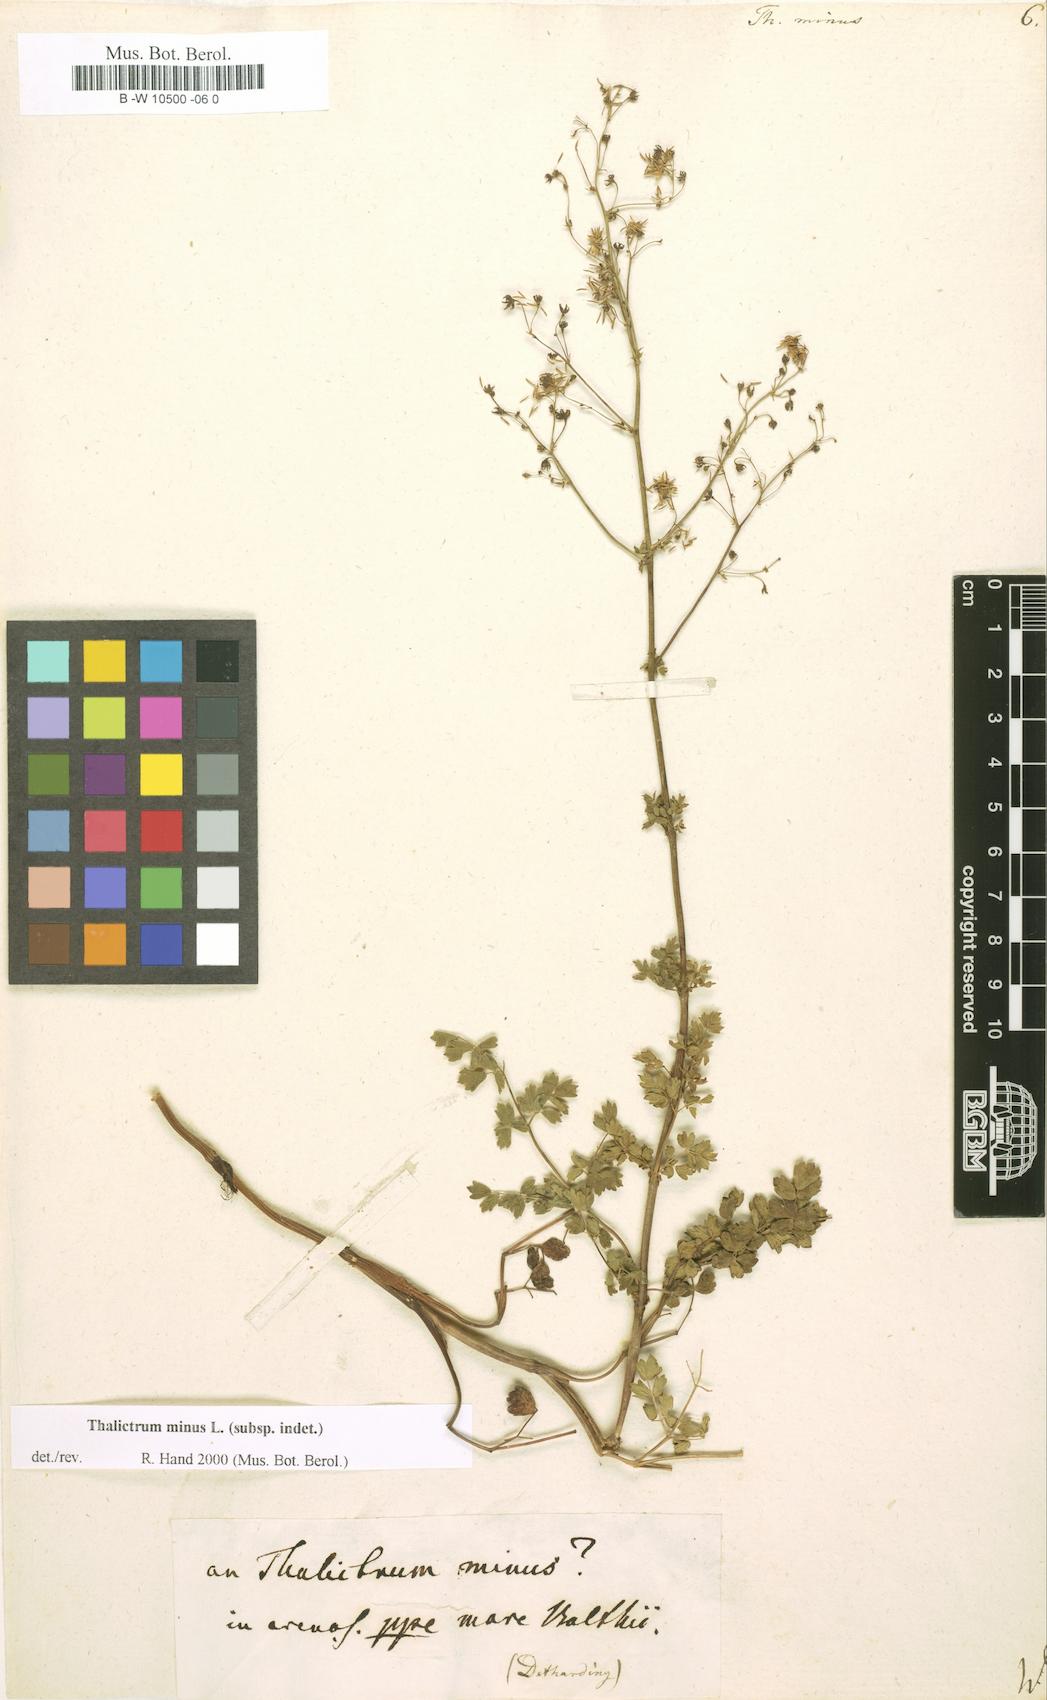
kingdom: Plantae
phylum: Tracheophyta
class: Magnoliopsida
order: Ranunculales
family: Ranunculaceae
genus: Thalictrum
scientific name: Thalictrum minus
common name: Lesser meadow-rue
